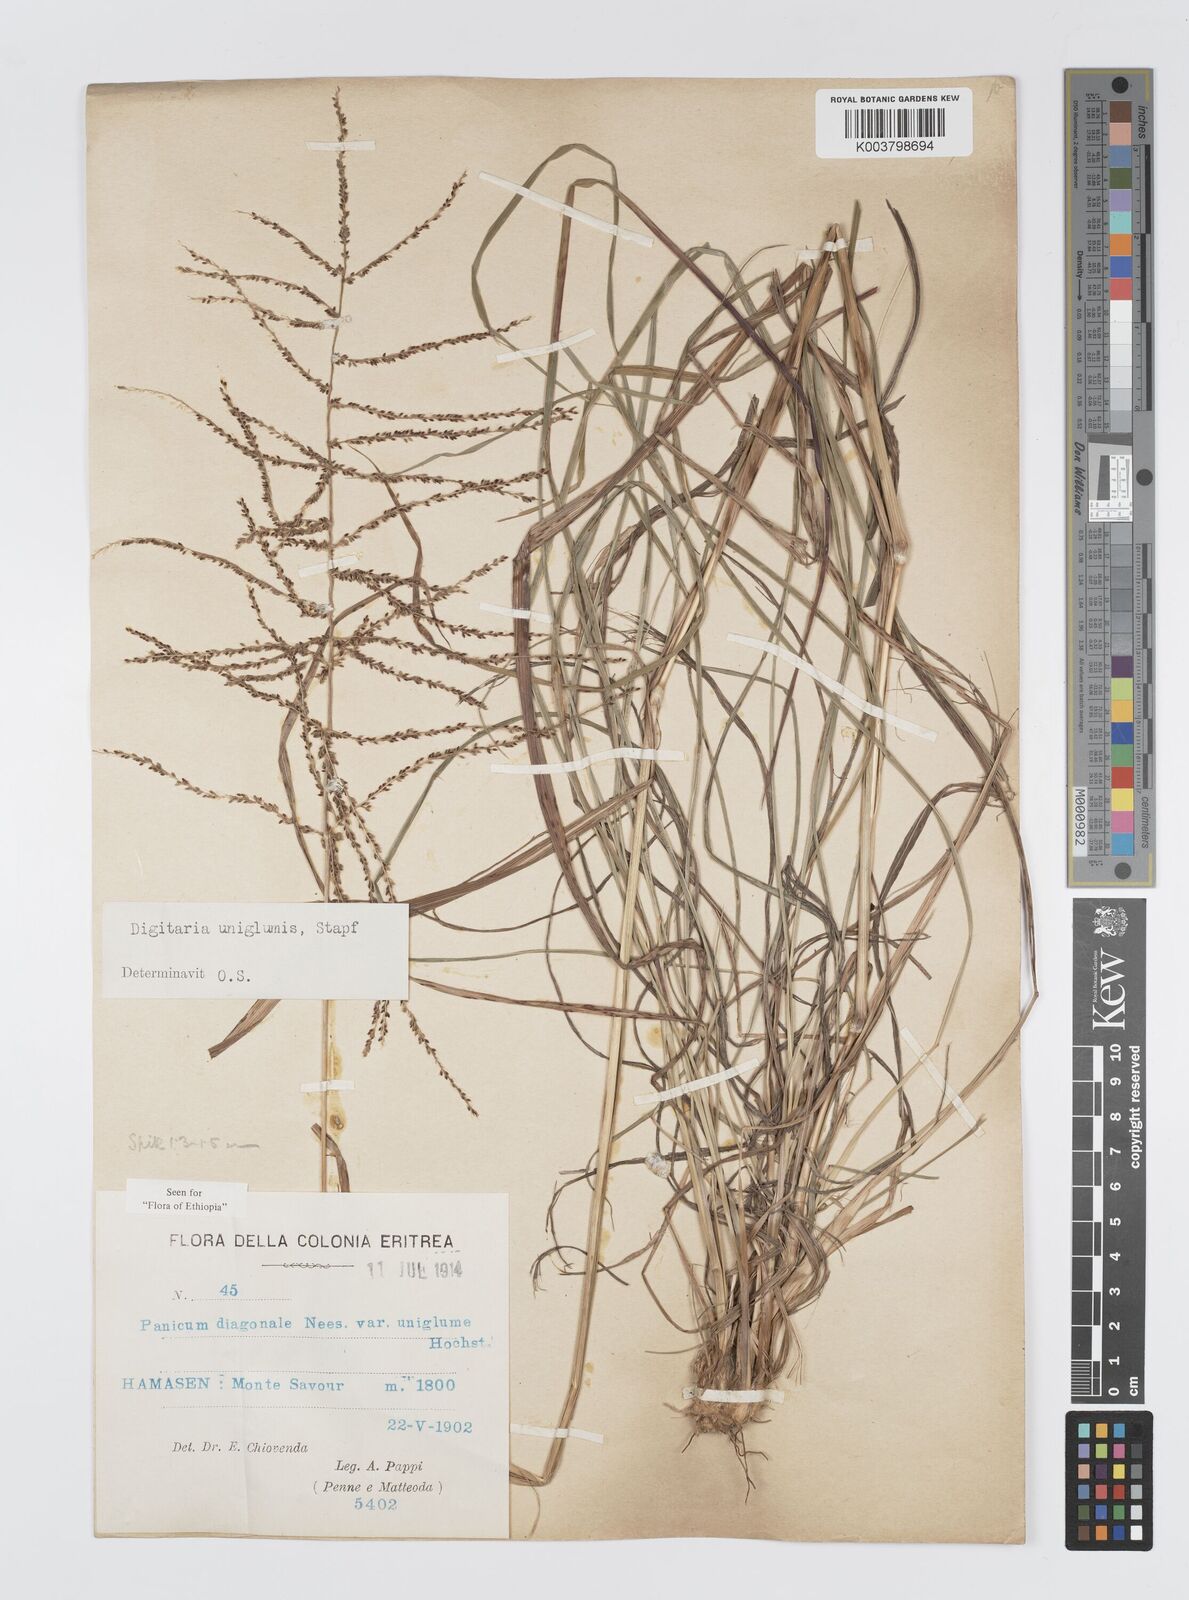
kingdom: Plantae
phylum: Tracheophyta
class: Liliopsida
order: Poales
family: Poaceae
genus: Digitaria
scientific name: Digitaria diagonalis
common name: Brown-seed finger grass
